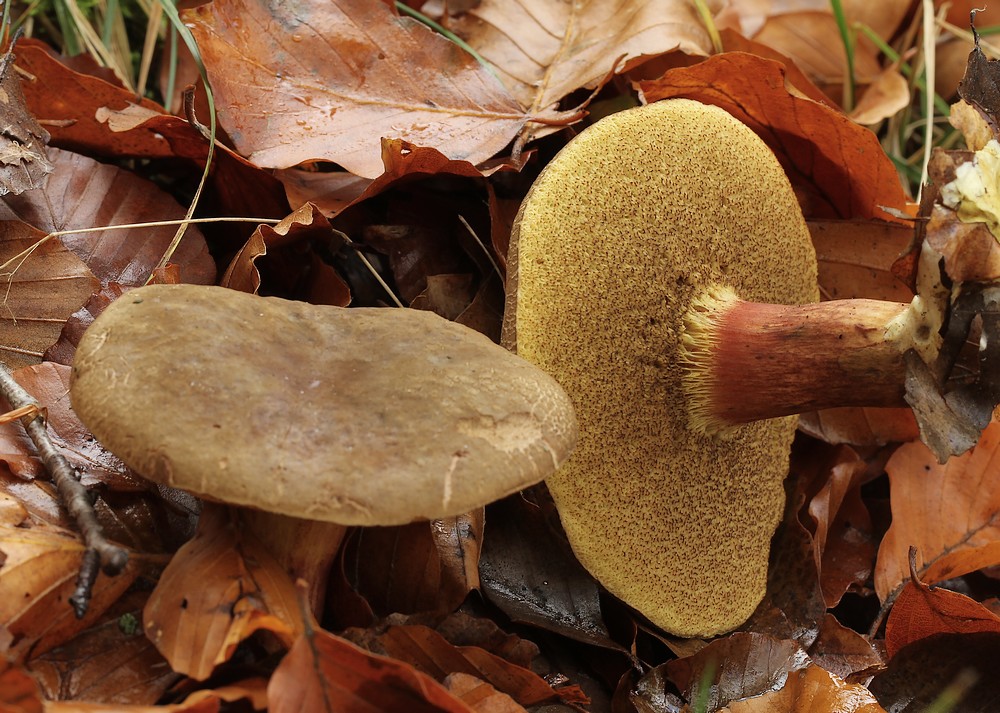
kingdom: Fungi
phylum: Basidiomycota
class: Agaricomycetes
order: Boletales
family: Boletaceae
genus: Xerocomellus
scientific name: Xerocomellus pruinatus
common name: dugget rørhat
